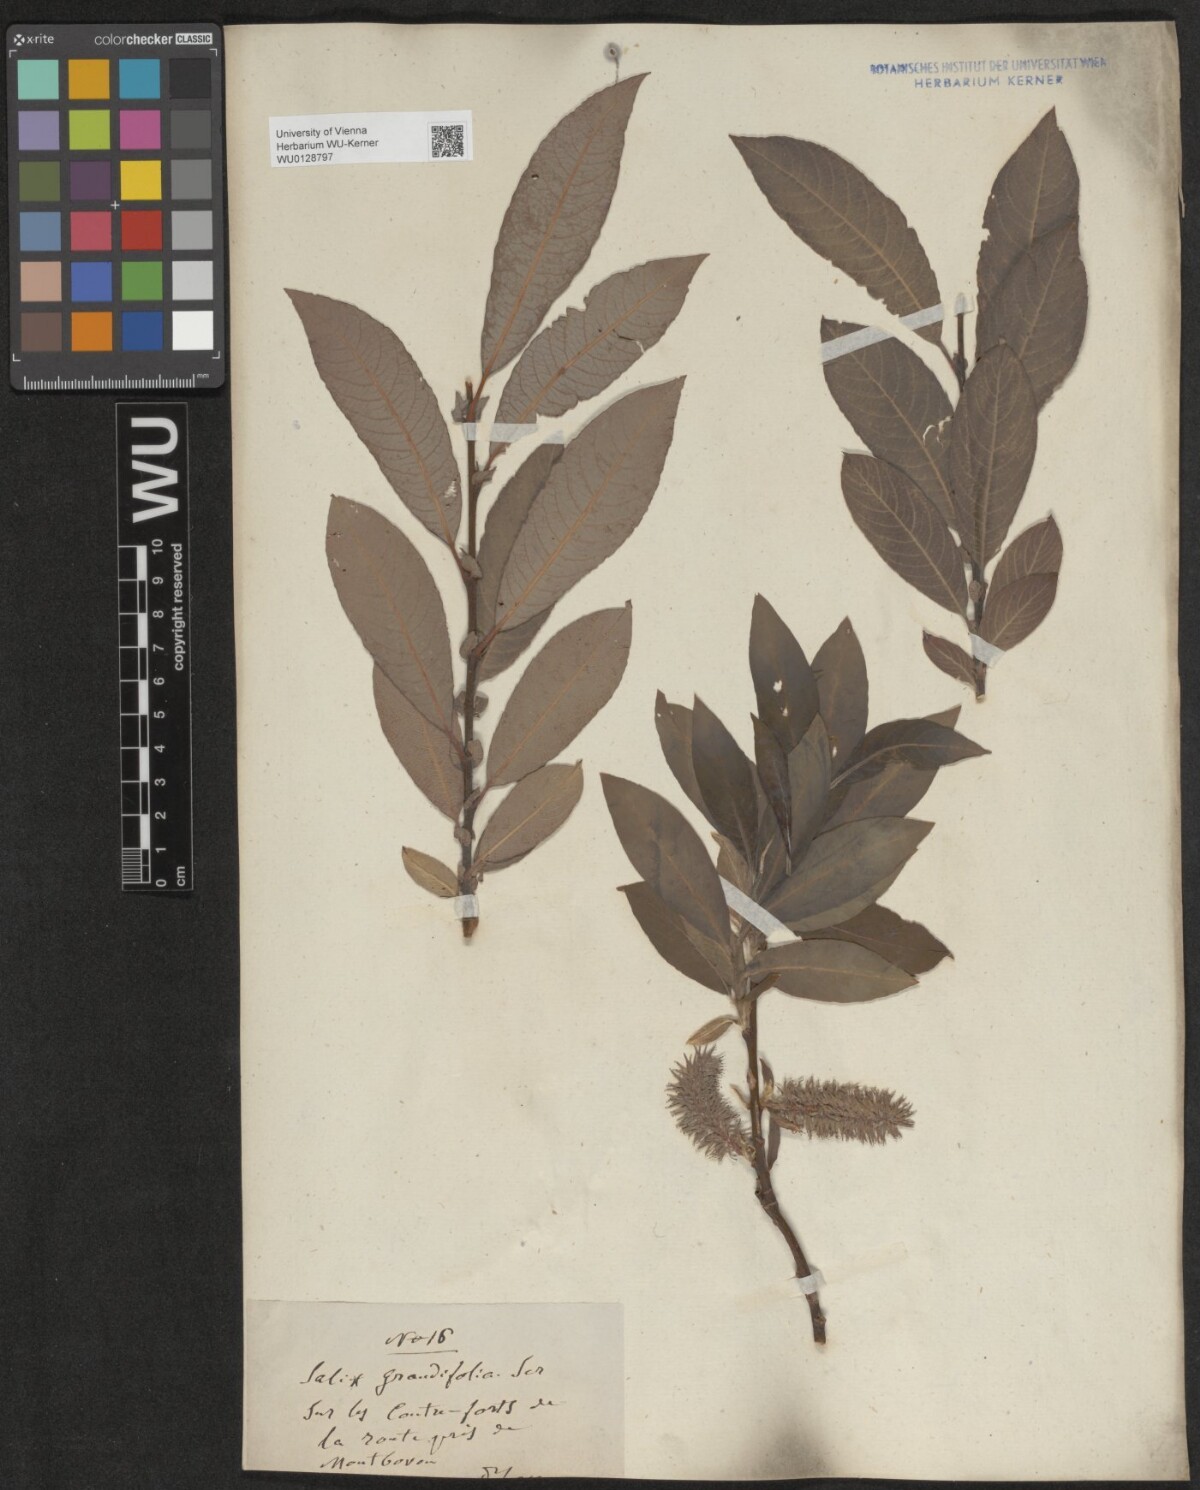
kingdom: Plantae
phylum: Tracheophyta
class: Magnoliopsida
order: Malpighiales
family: Salicaceae
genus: Salix
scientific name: Salix appendiculata
